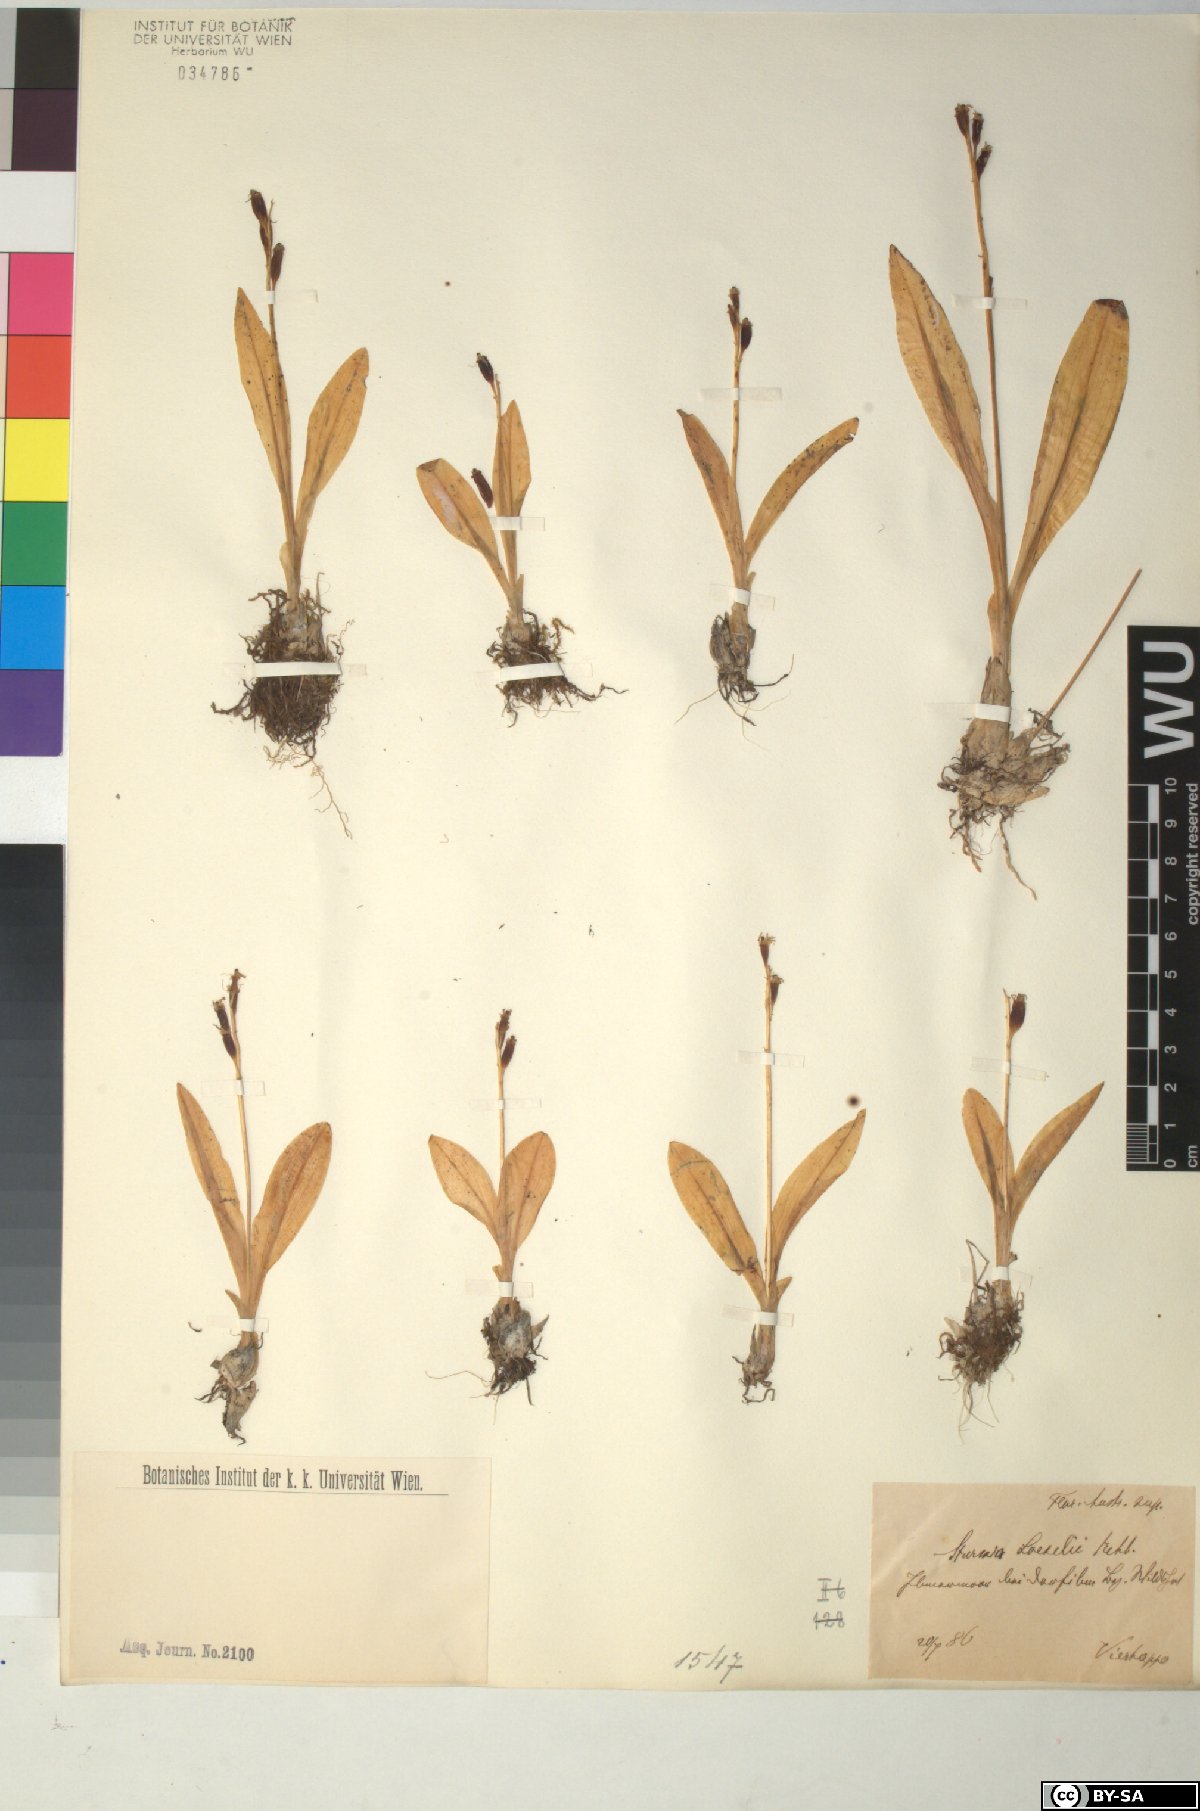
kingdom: Animalia
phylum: Arthropoda
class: Insecta
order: Coleoptera
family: Curculionidae
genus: Liparis
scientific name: Liparis loeselii
